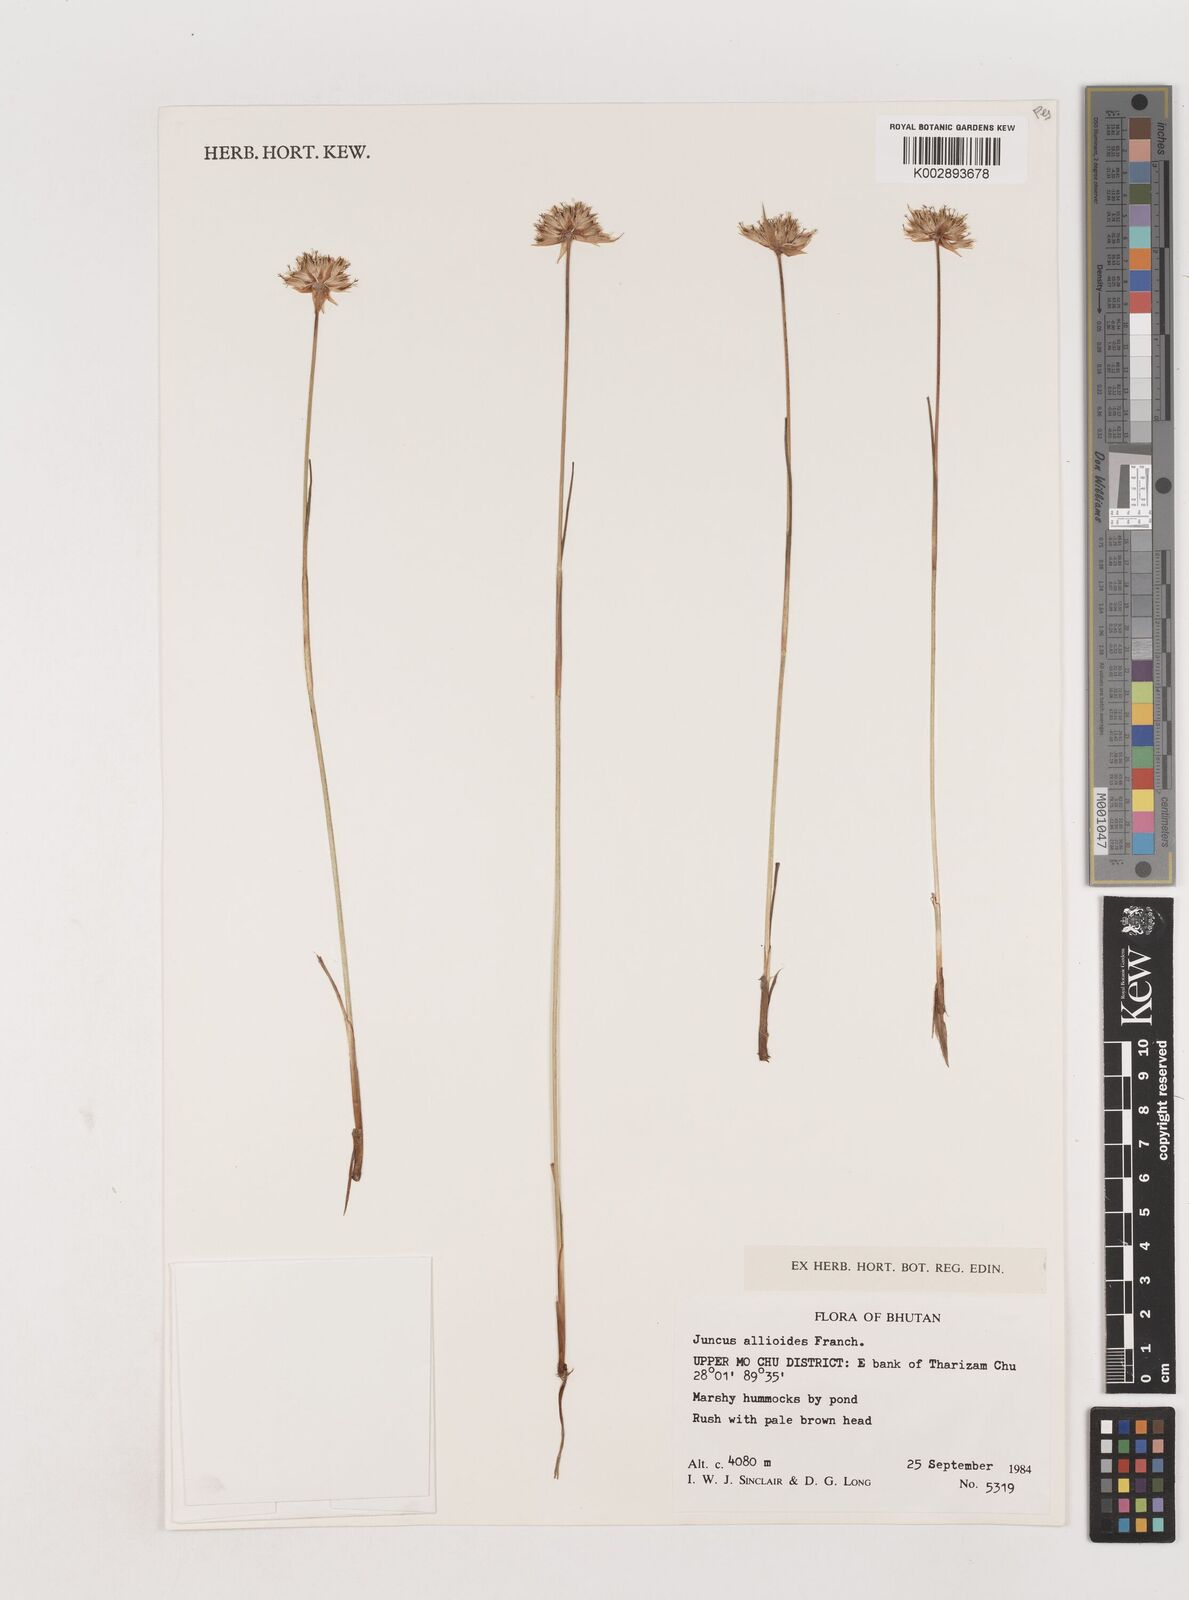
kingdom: Plantae
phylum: Tracheophyta
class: Liliopsida
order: Poales
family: Juncaceae
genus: Juncus
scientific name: Juncus allioides
